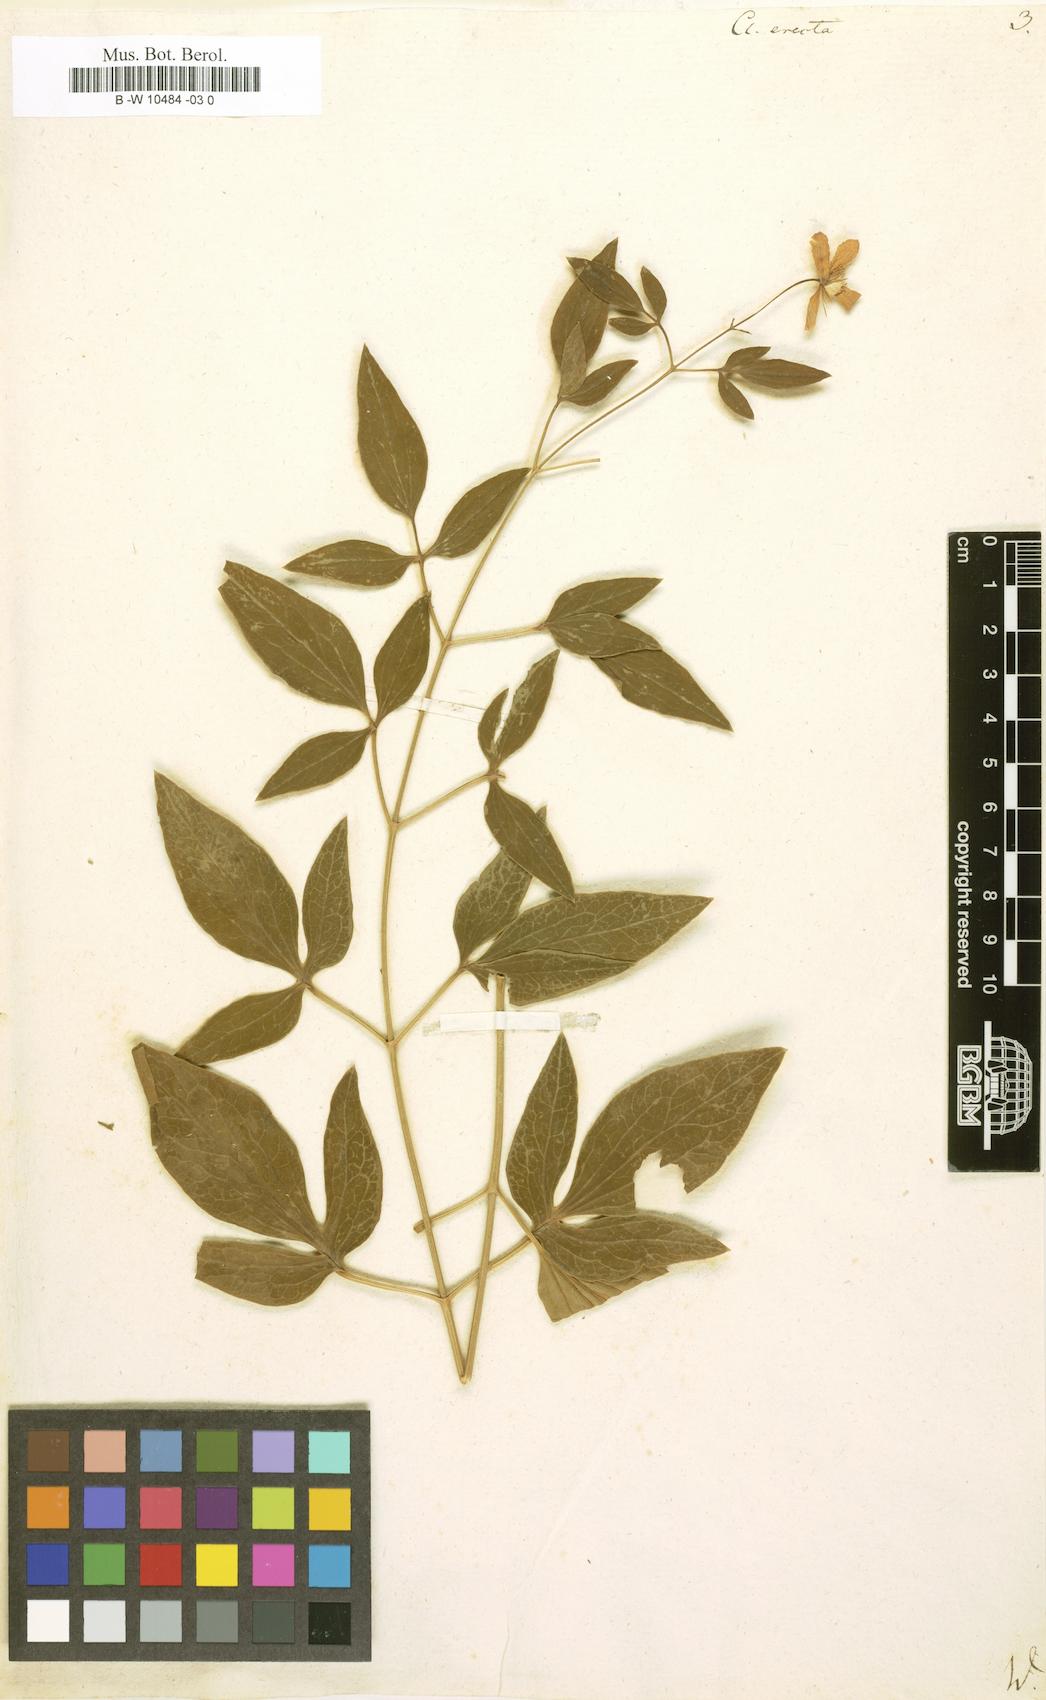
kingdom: Plantae
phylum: Tracheophyta
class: Magnoliopsida
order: Ranunculales
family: Ranunculaceae
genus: Clematis
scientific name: Clematis recta
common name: Ground clematis
